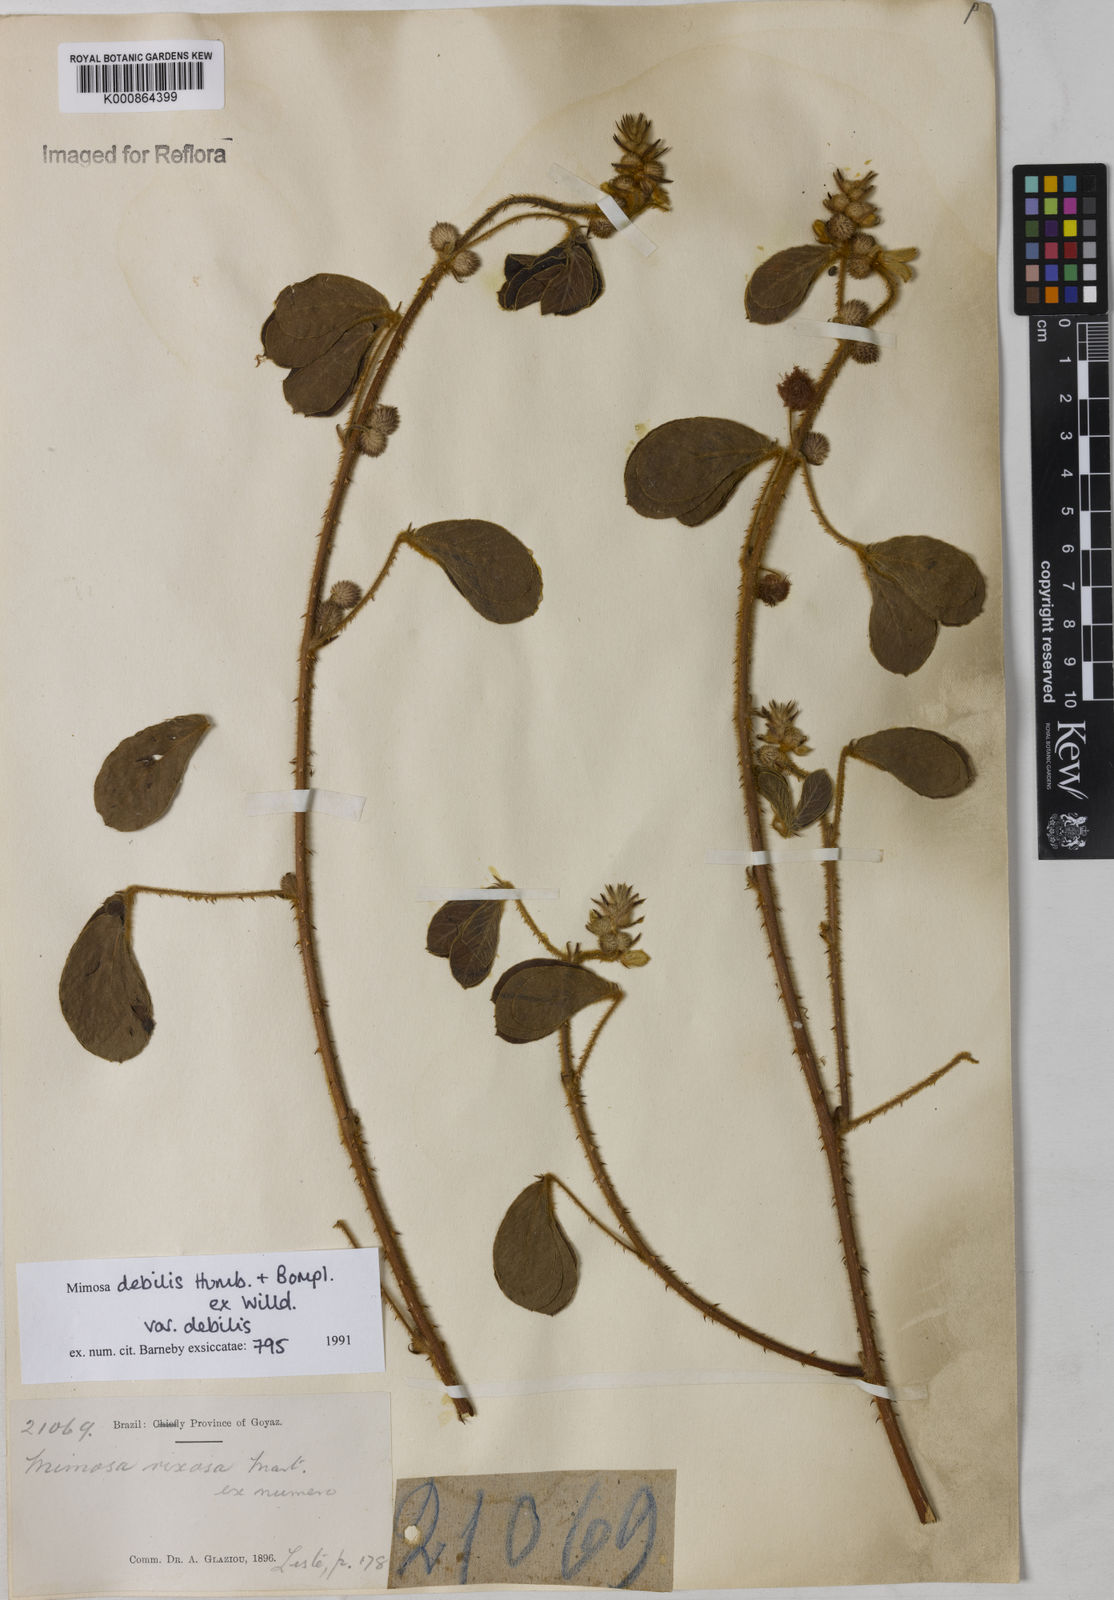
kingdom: Plantae
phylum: Tracheophyta
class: Magnoliopsida
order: Fabales
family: Fabaceae
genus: Mimosa
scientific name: Mimosa debilis
